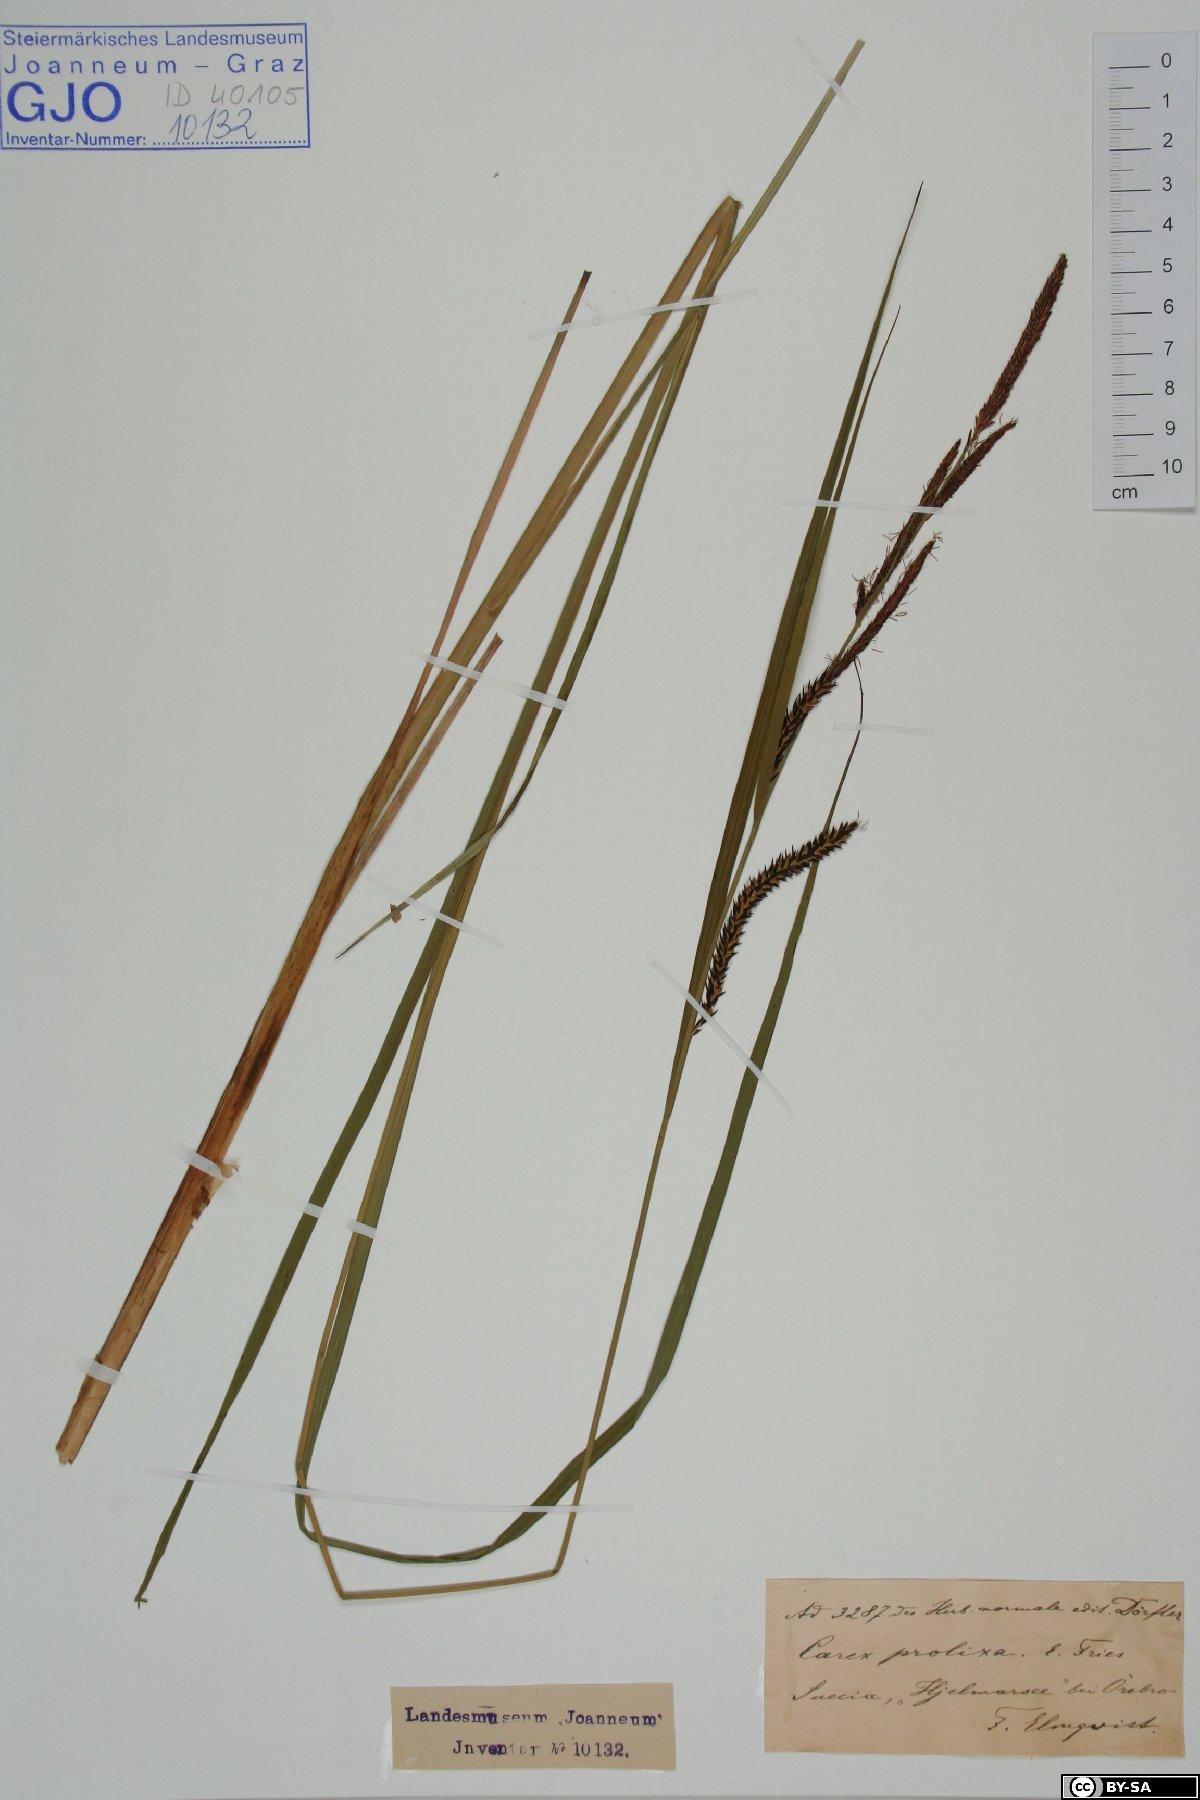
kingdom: Plantae
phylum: Tracheophyta
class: Liliopsida
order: Poales
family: Cyperaceae
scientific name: Cyperaceae
